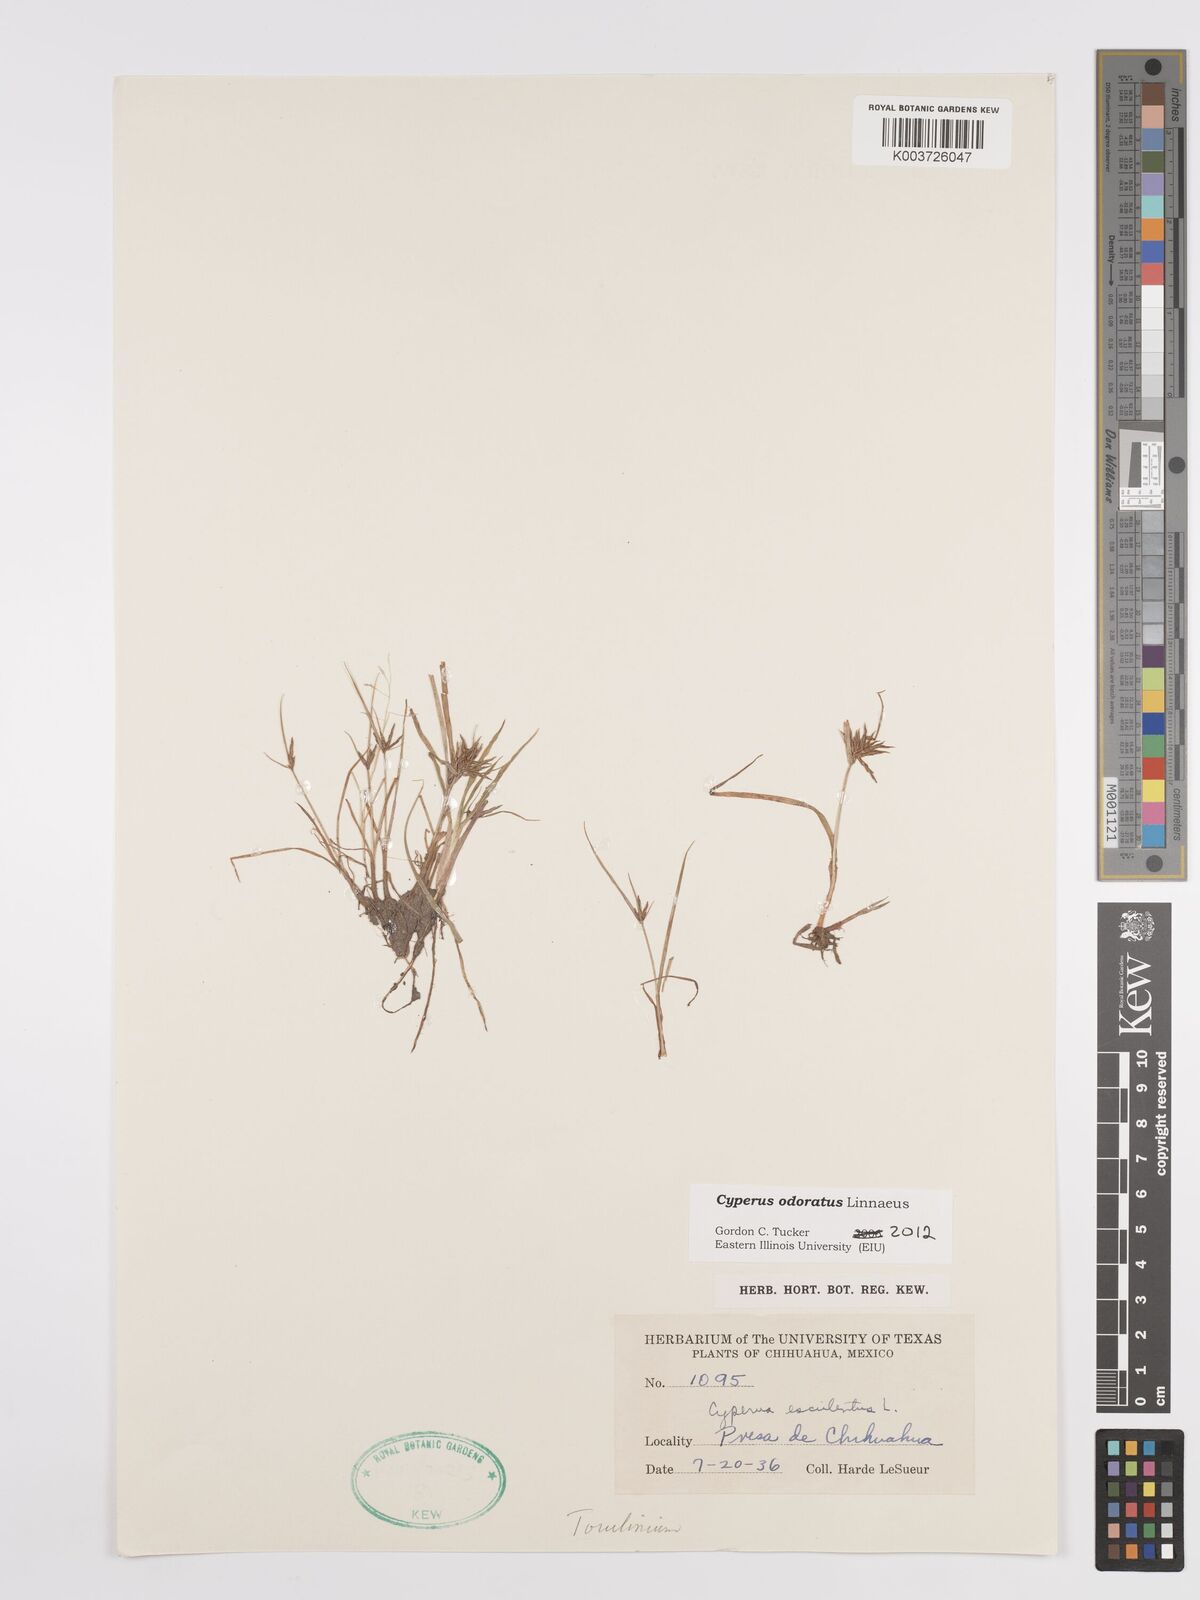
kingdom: Plantae
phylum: Tracheophyta
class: Liliopsida
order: Poales
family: Cyperaceae
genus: Cyperus
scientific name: Cyperus odoratus
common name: Fragrant flatsedge
